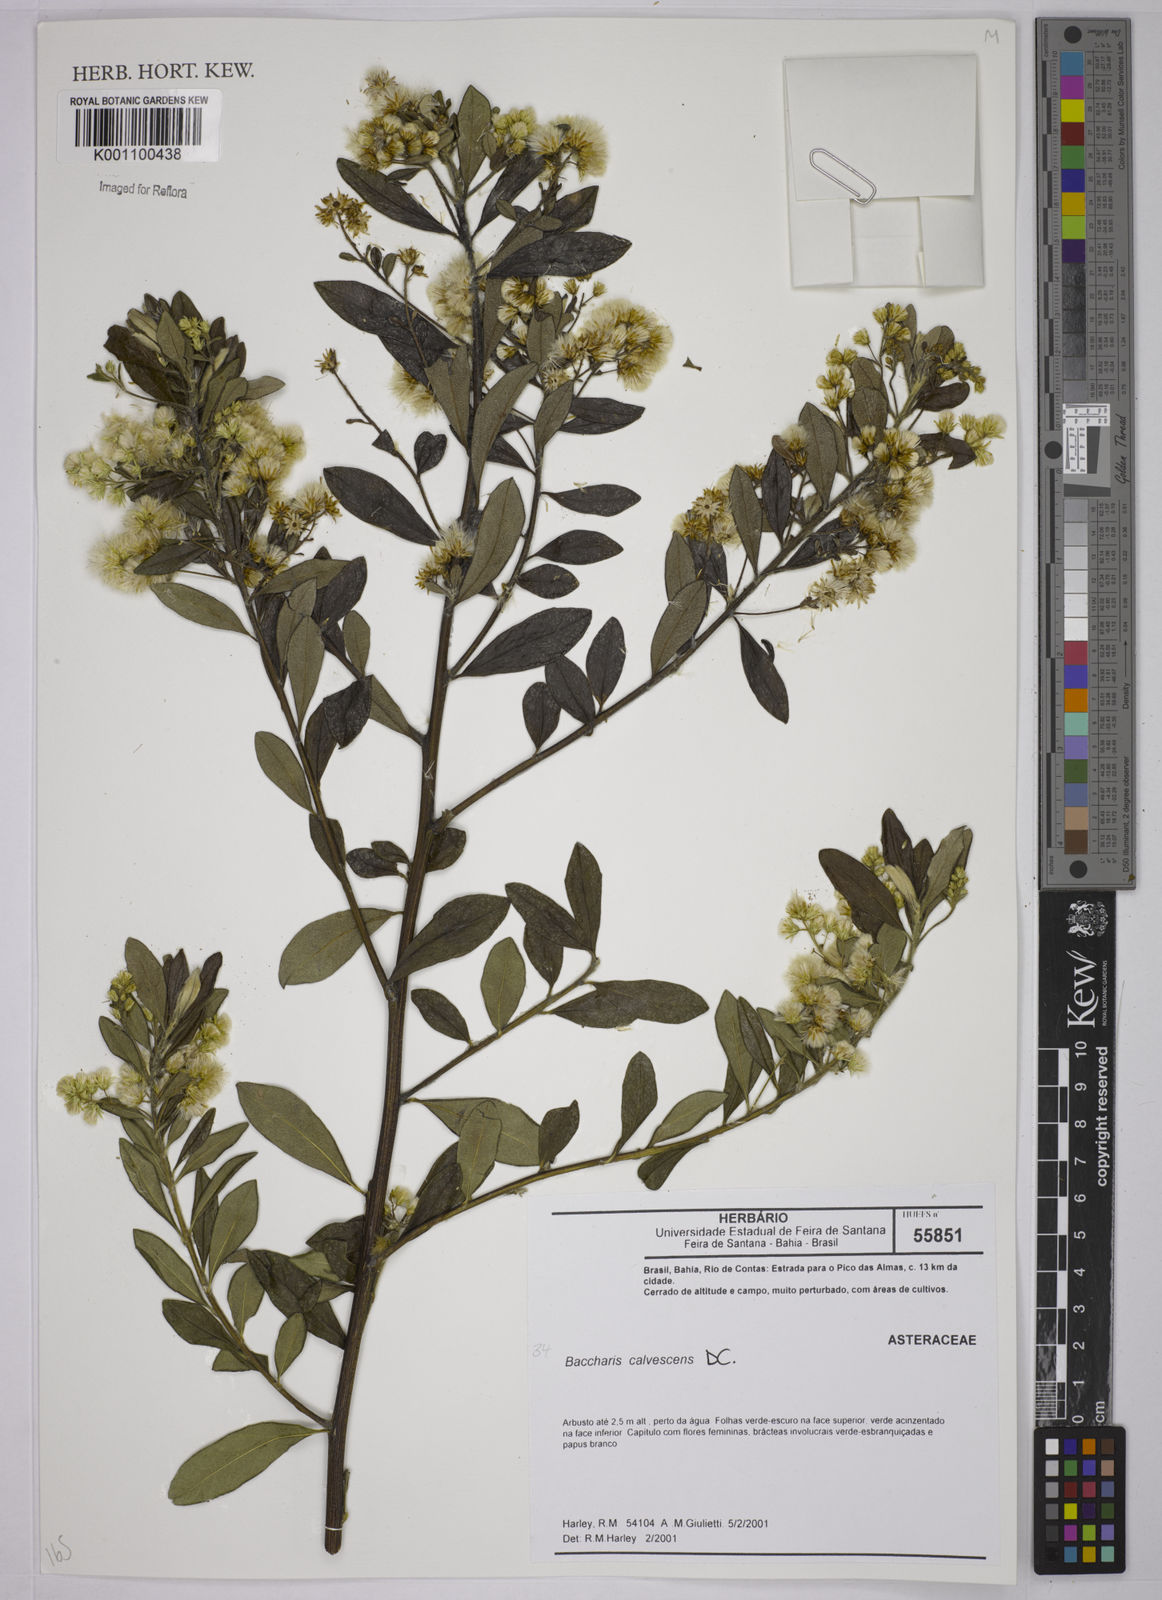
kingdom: Plantae
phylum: Tracheophyta
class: Magnoliopsida
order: Asterales
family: Asteraceae
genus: Baccharis
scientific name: Baccharis calvescens
